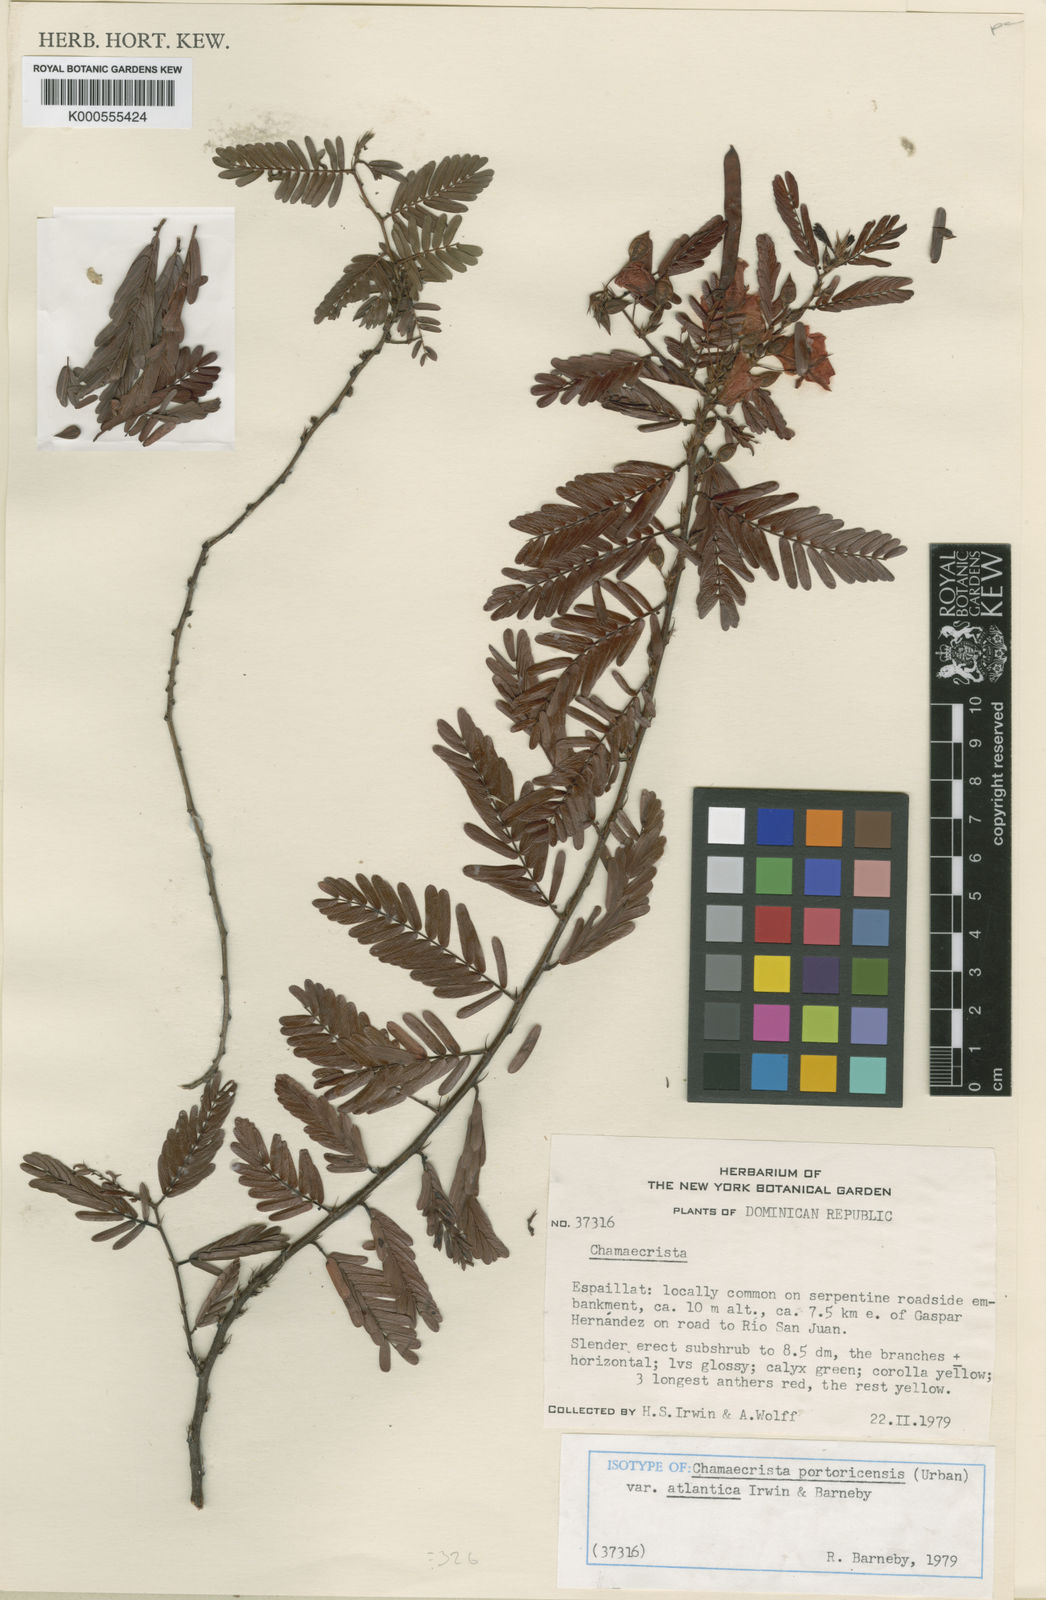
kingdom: Plantae
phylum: Tracheophyta
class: Magnoliopsida
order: Fabales
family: Fabaceae
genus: Chamaecrista
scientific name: Chamaecrista portoricensis
